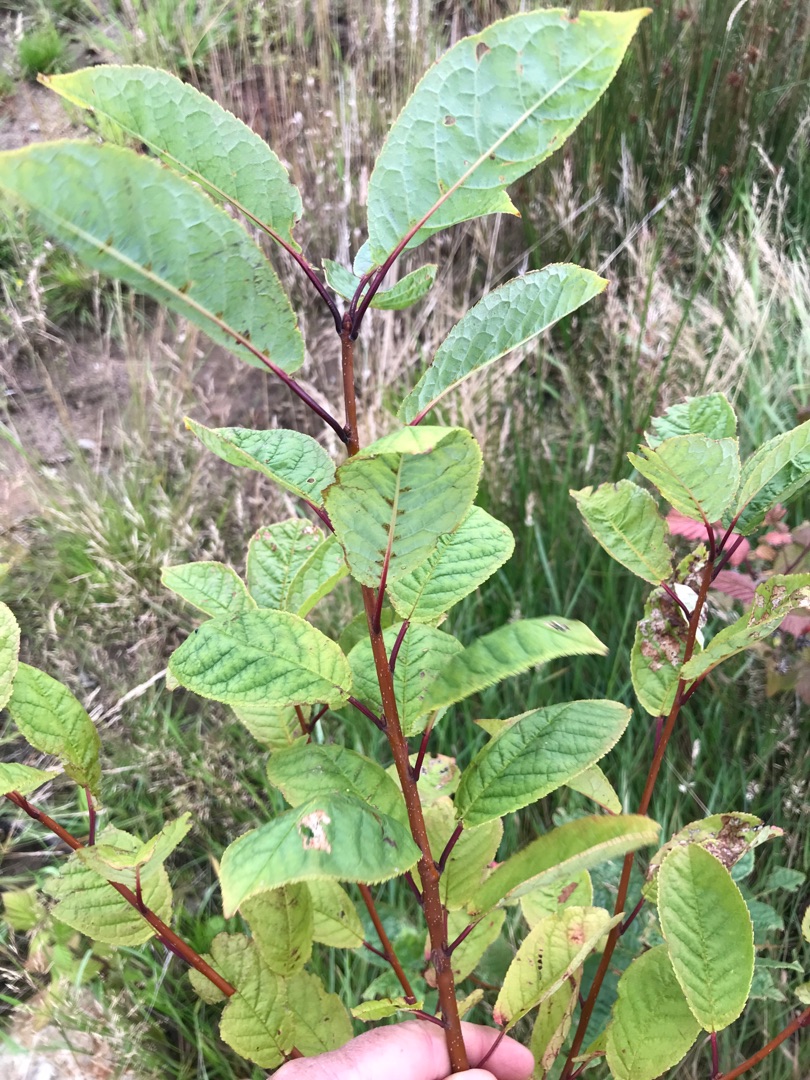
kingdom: Plantae
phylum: Tracheophyta
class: Magnoliopsida
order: Rosales
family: Rosaceae
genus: Prunus
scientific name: Prunus padus
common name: Almindelig hæg
